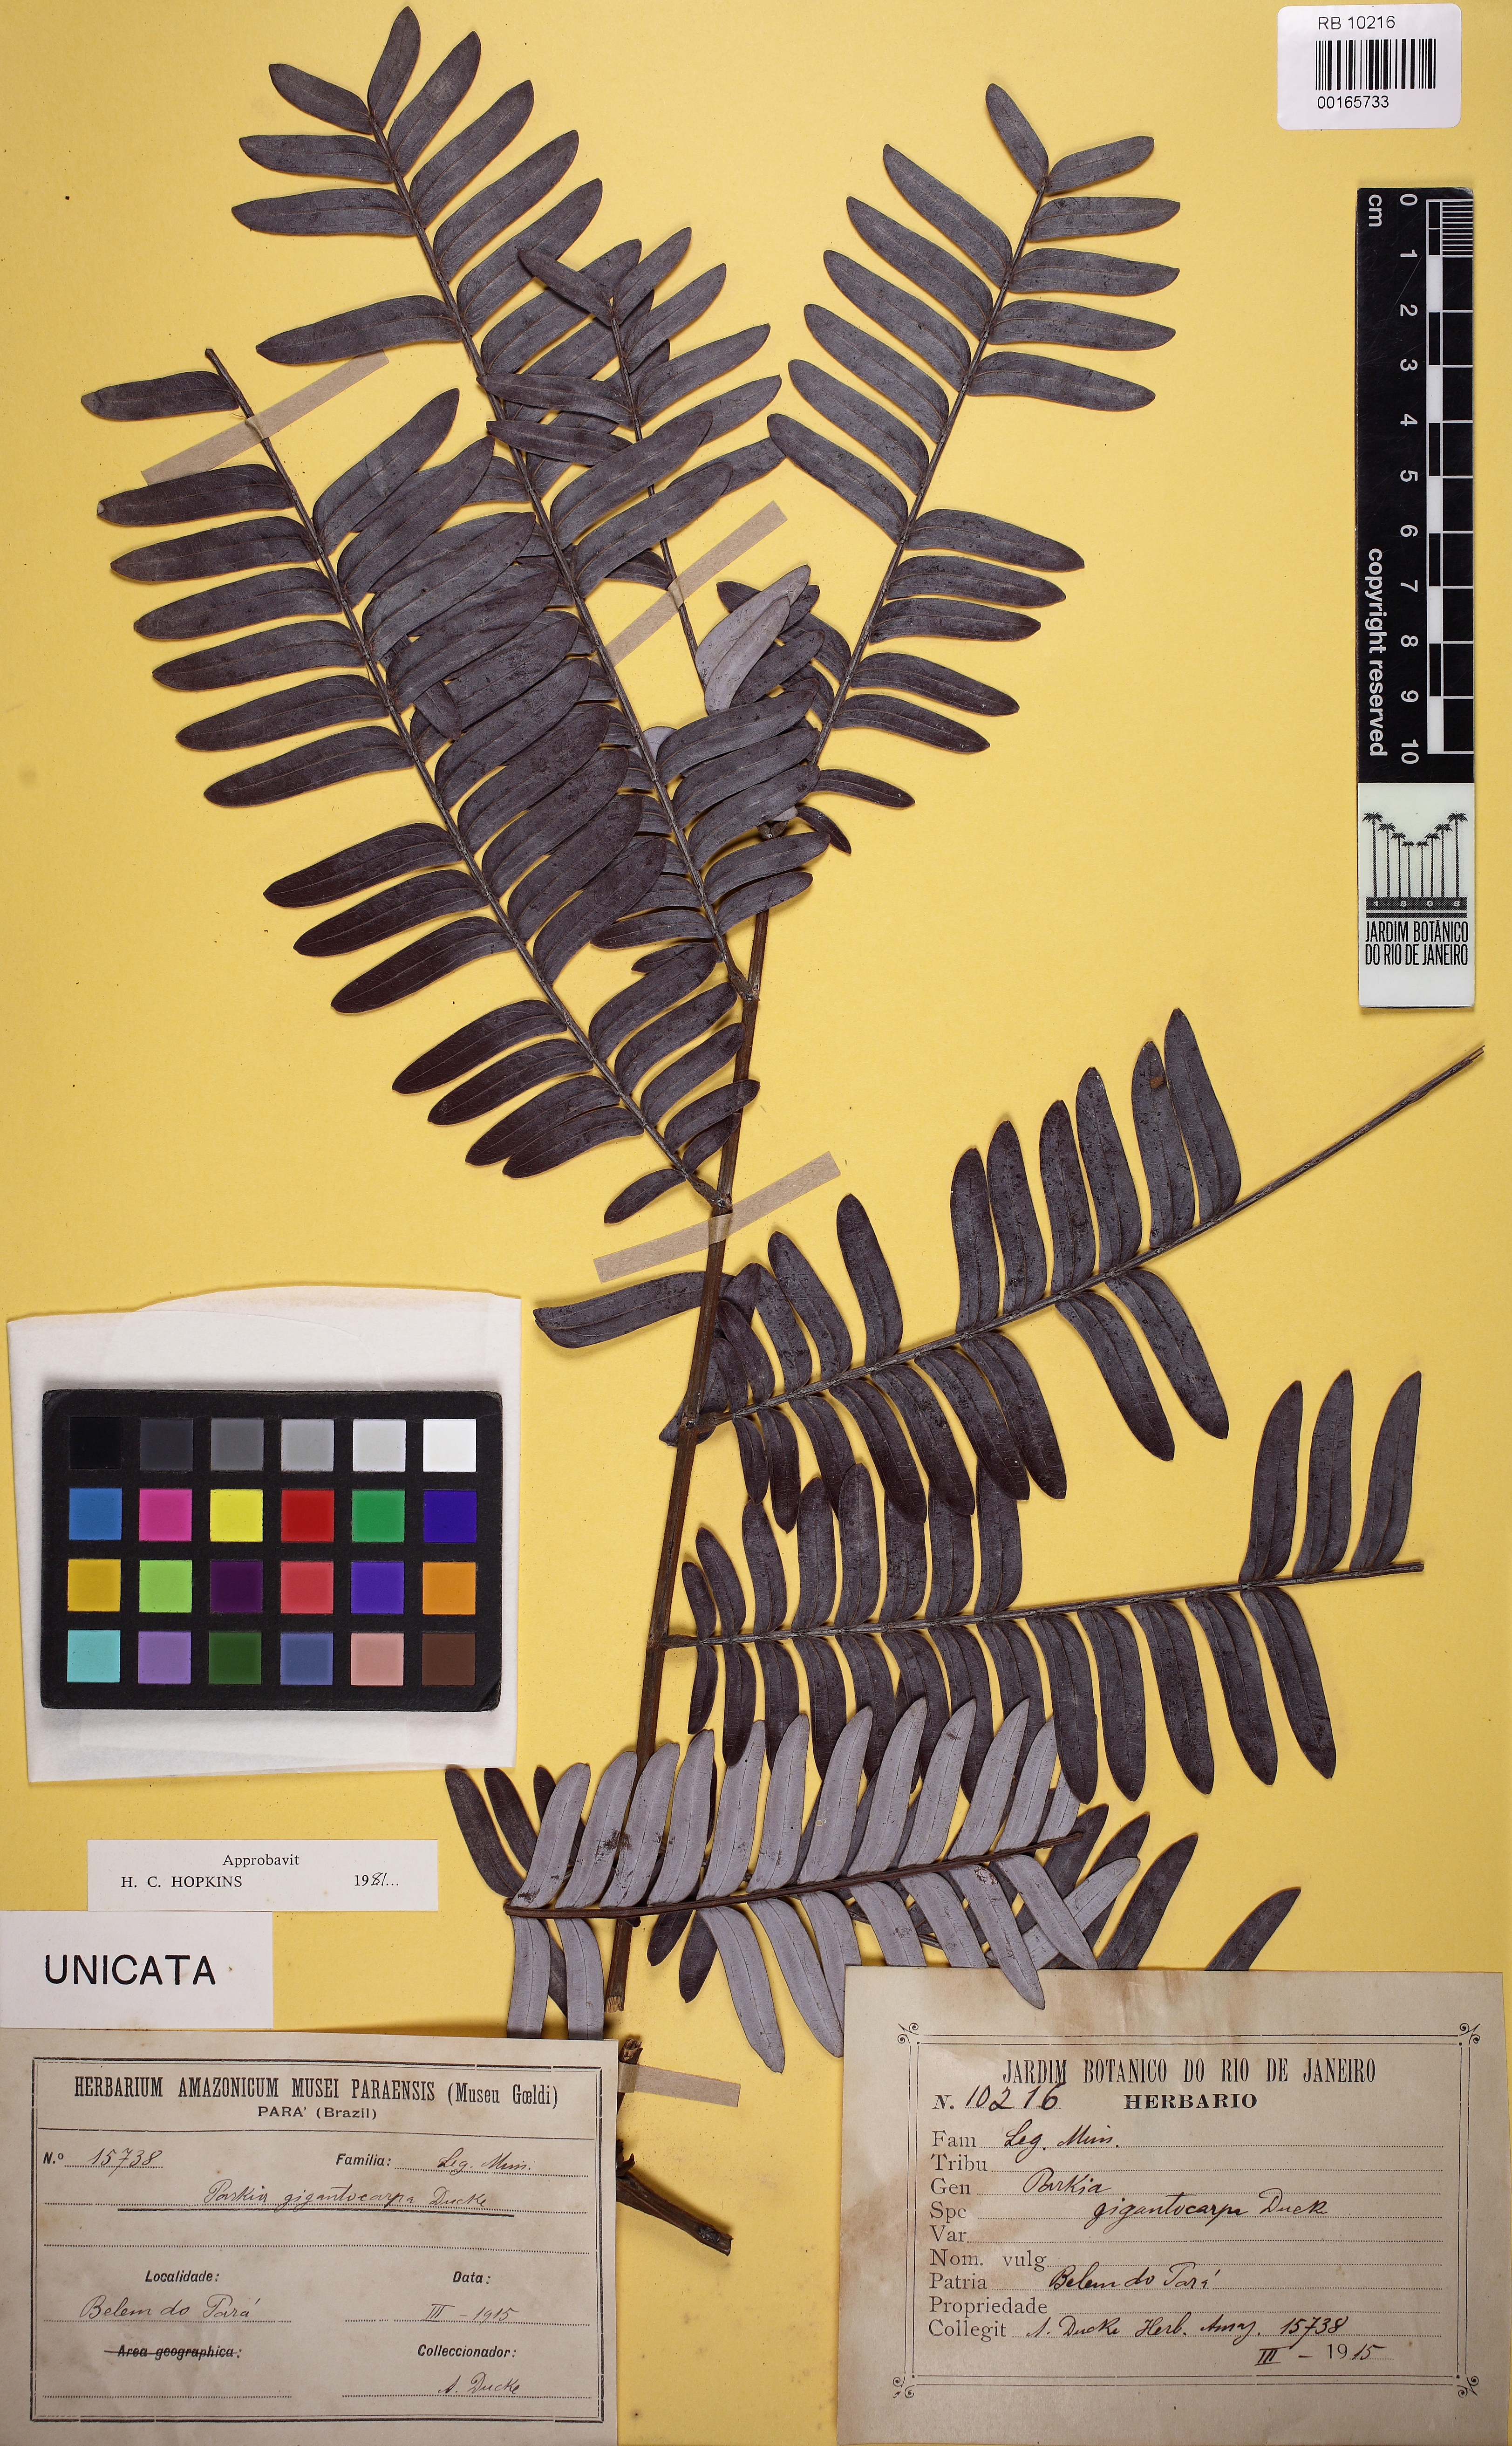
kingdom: Plantae
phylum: Tracheophyta
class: Magnoliopsida
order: Fabales
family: Fabaceae
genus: Parkia
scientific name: Parkia gigantocarpa
